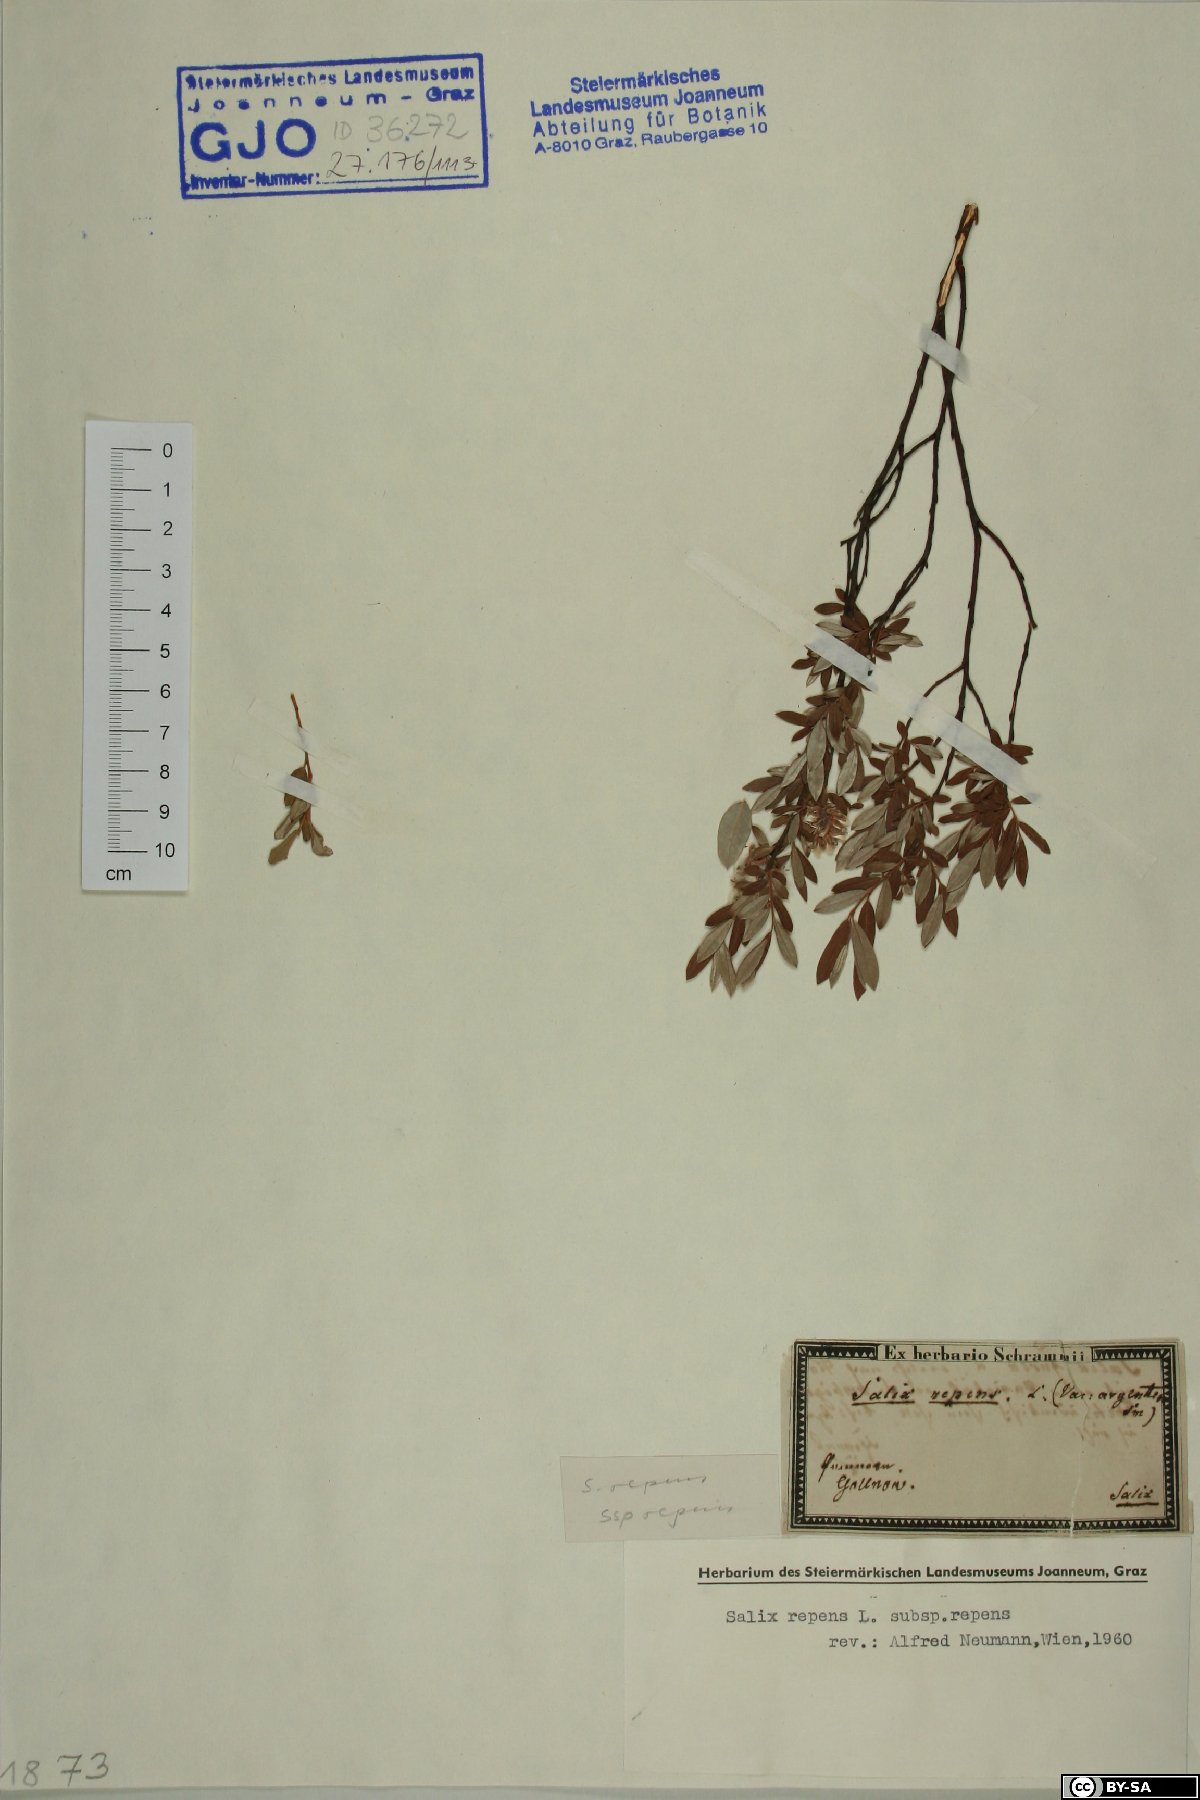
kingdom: Plantae
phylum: Tracheophyta
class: Magnoliopsida
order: Malpighiales
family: Salicaceae
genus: Salix
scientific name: Salix repens
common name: Creeping willow
